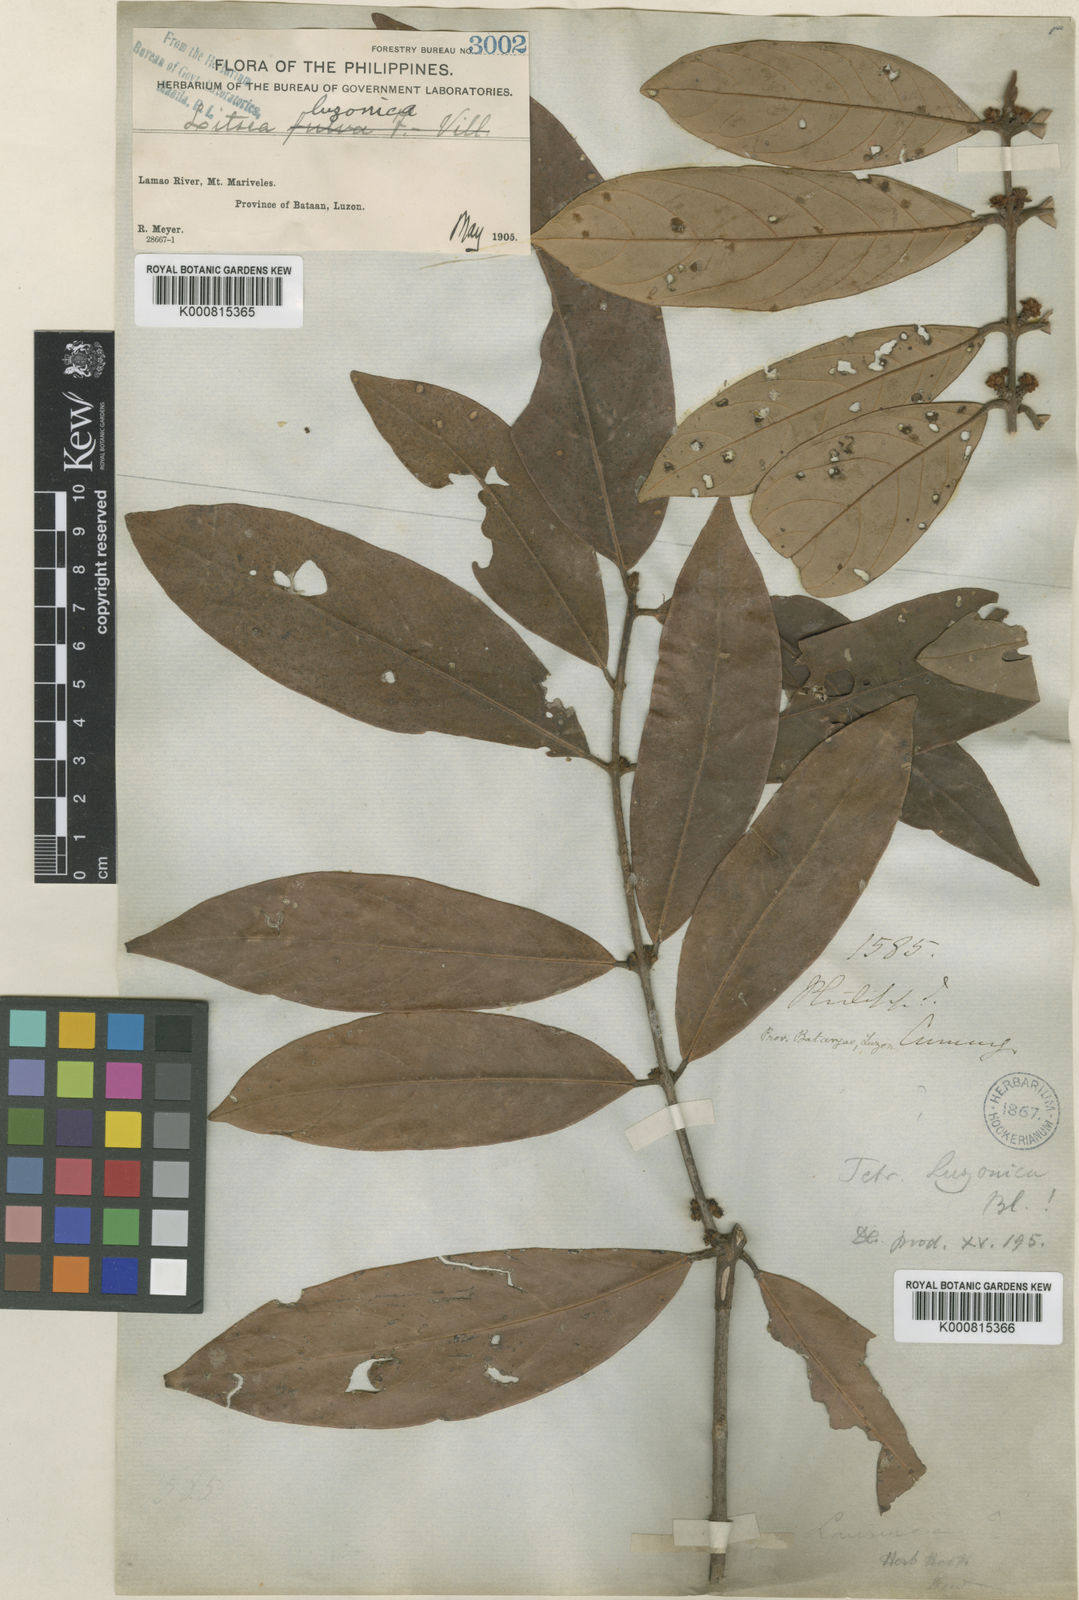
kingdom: Plantae
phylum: Tracheophyta
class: Magnoliopsida
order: Laurales
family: Lauraceae
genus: Litsea
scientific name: Litsea luzonica
